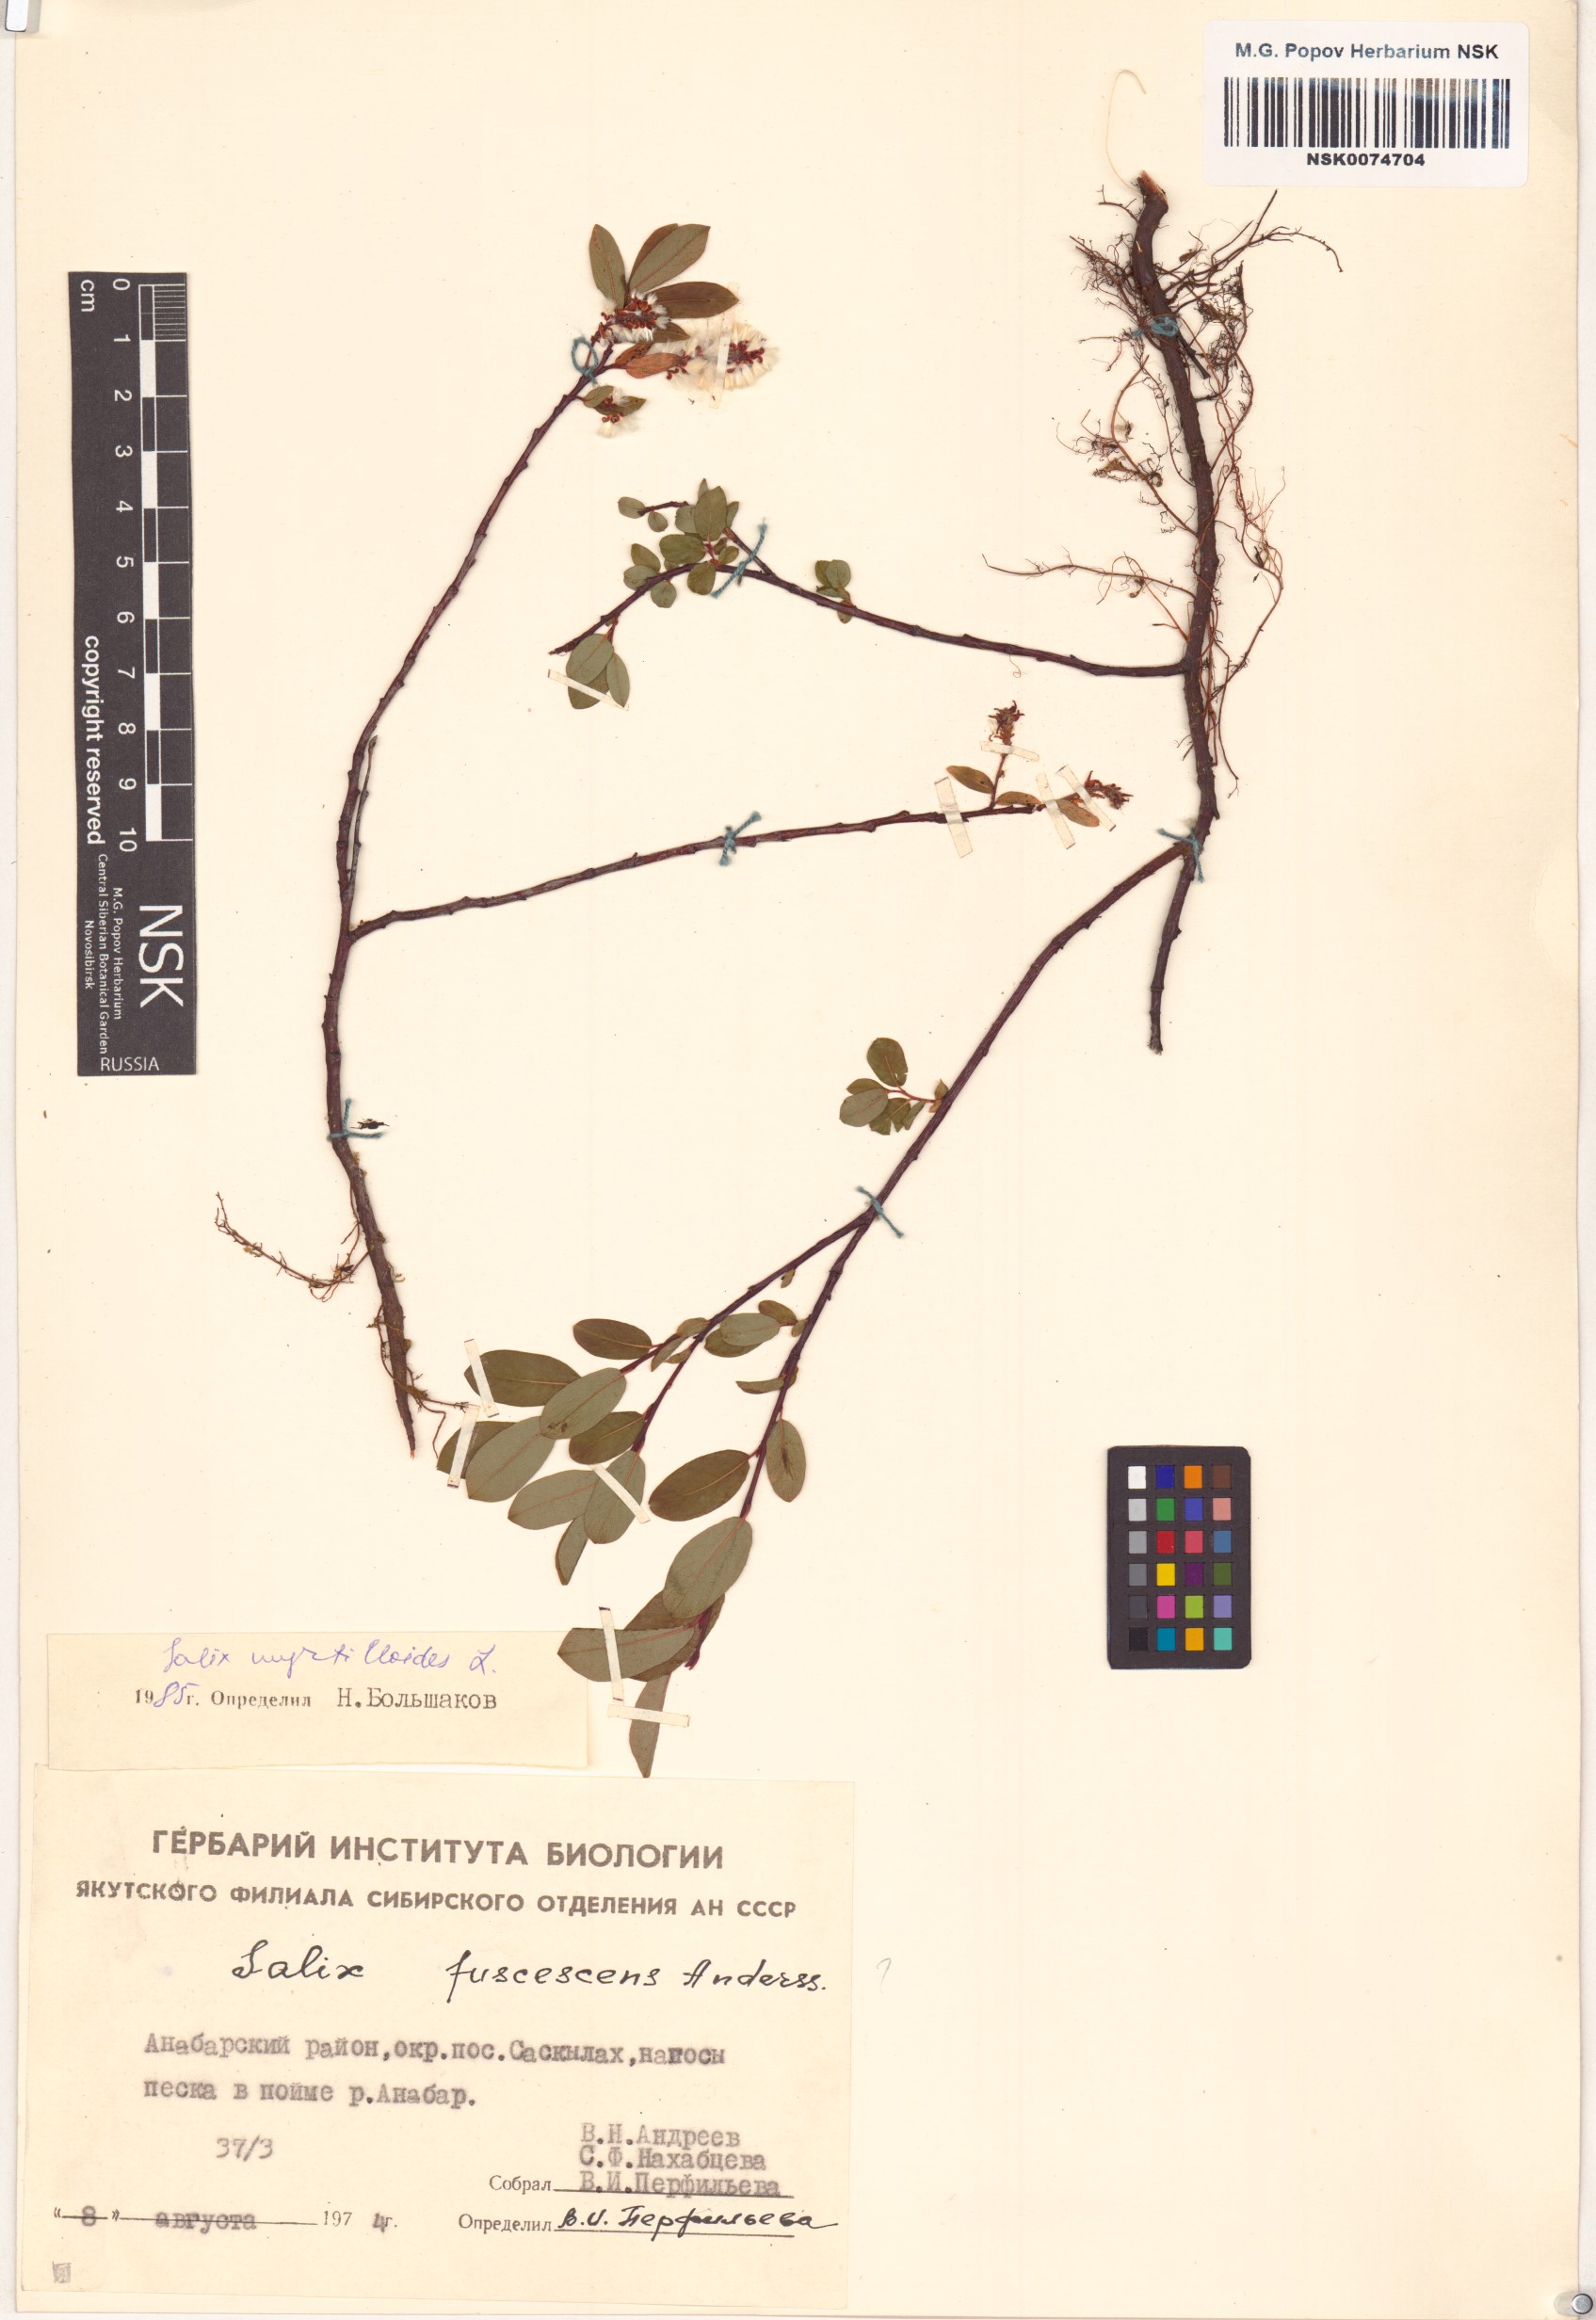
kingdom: Plantae
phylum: Tracheophyta
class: Magnoliopsida
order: Malpighiales
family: Salicaceae
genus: Salix
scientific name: Salix myrtilloides
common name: Myrtle-leaved willow
